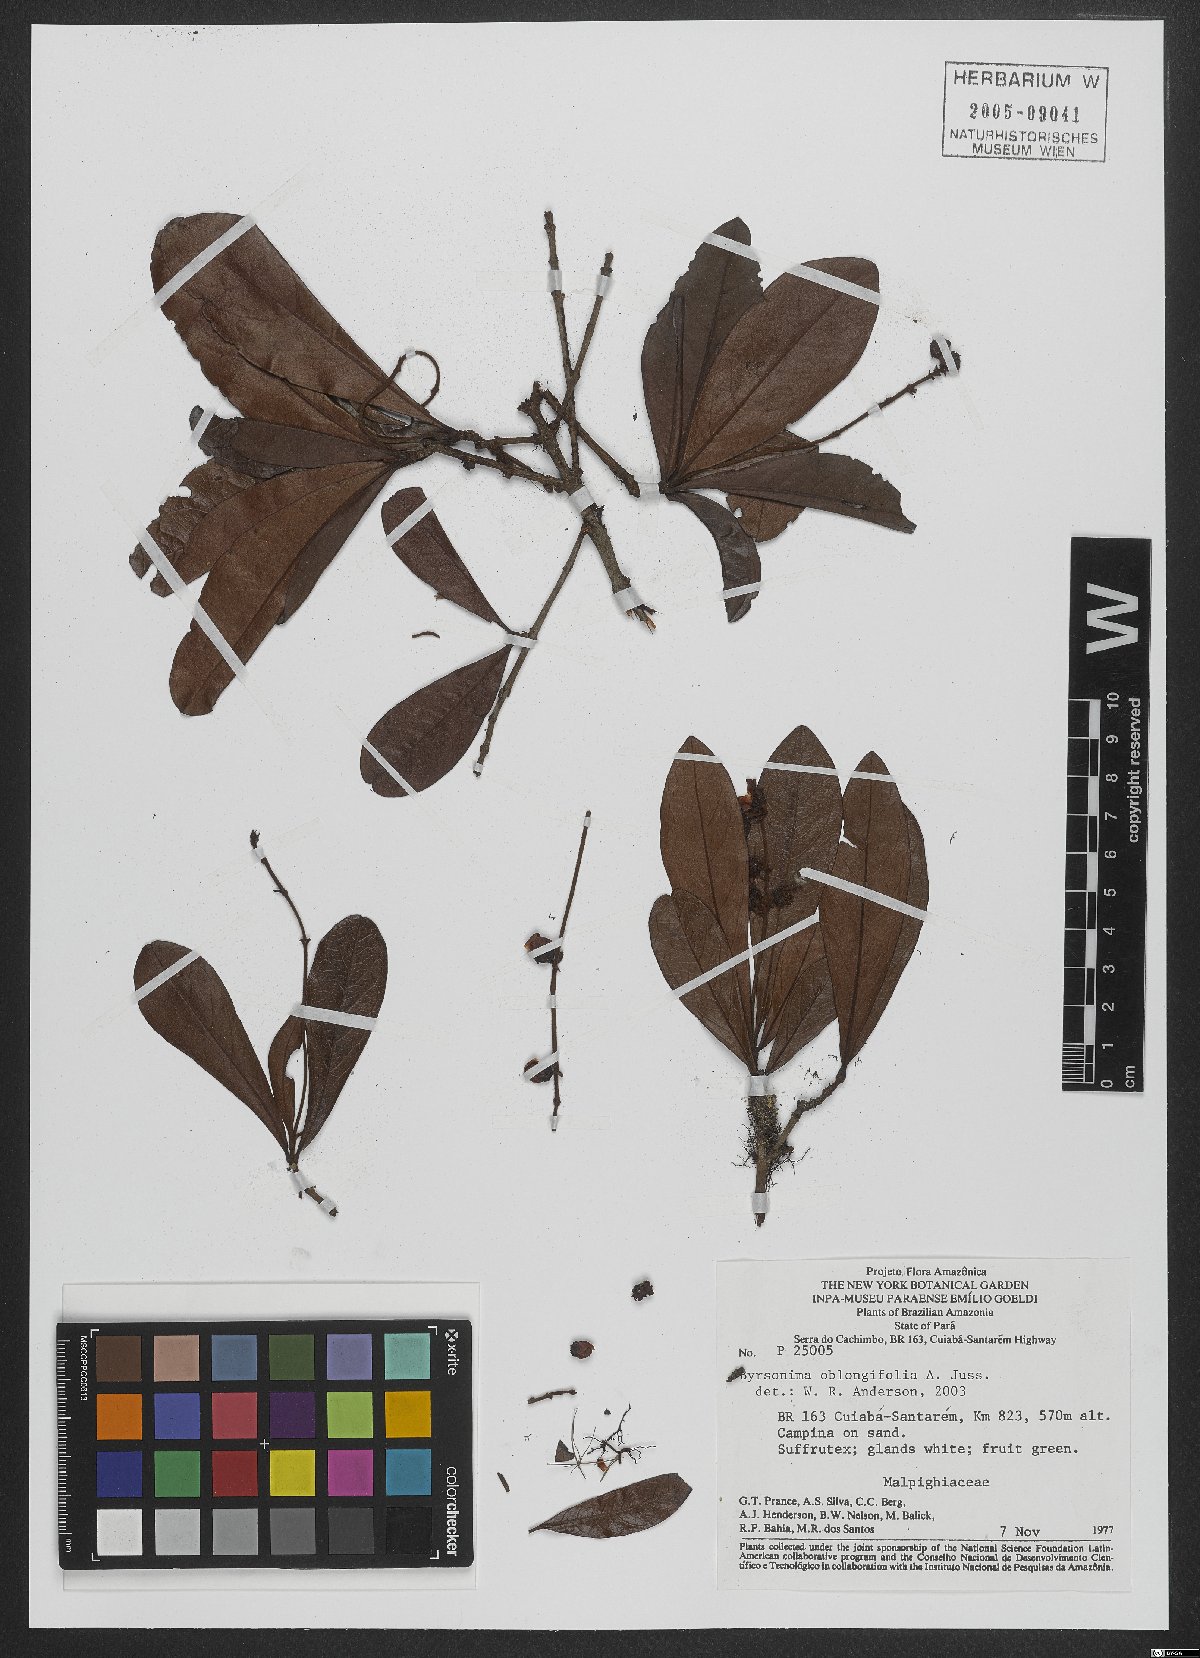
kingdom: Plantae
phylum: Tracheophyta
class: Magnoliopsida
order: Malpighiales
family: Malpighiaceae
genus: Byrsonima
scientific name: Byrsonima oblongifolia
